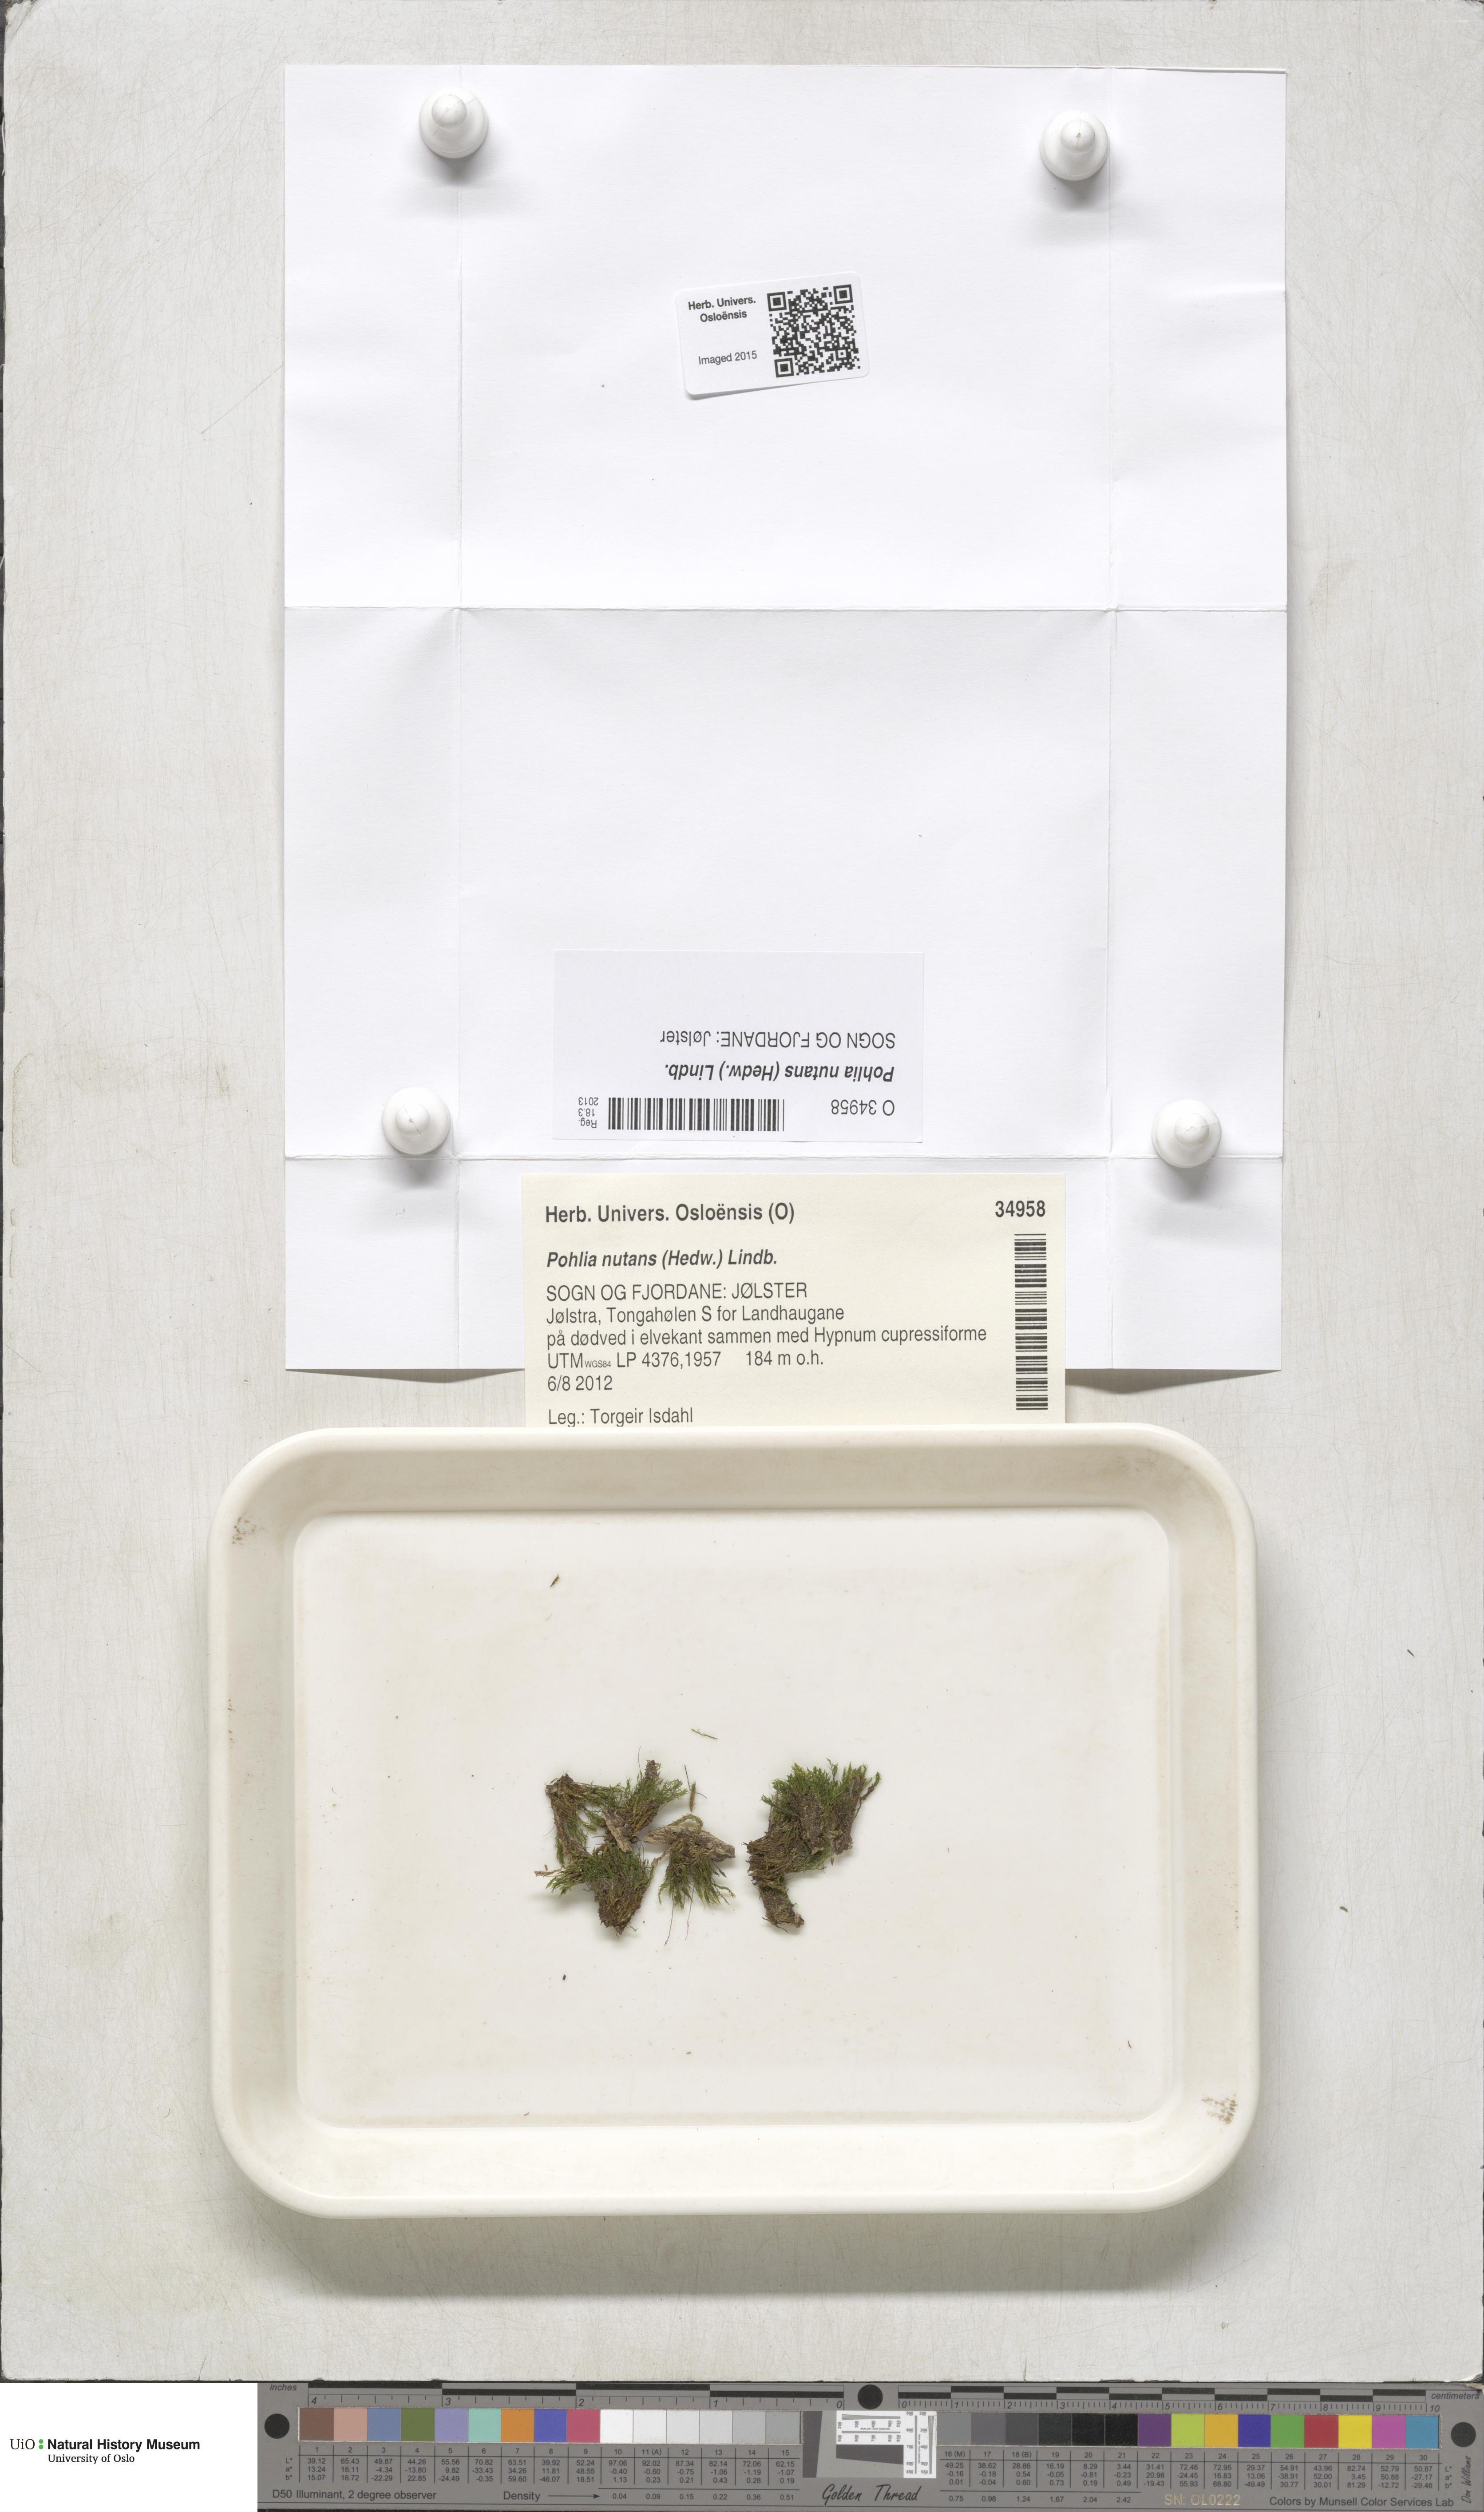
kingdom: Plantae
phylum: Bryophyta
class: Bryopsida
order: Bryales
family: Mniaceae
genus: Pohlia
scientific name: Pohlia nutans
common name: Nodding thread-moss
